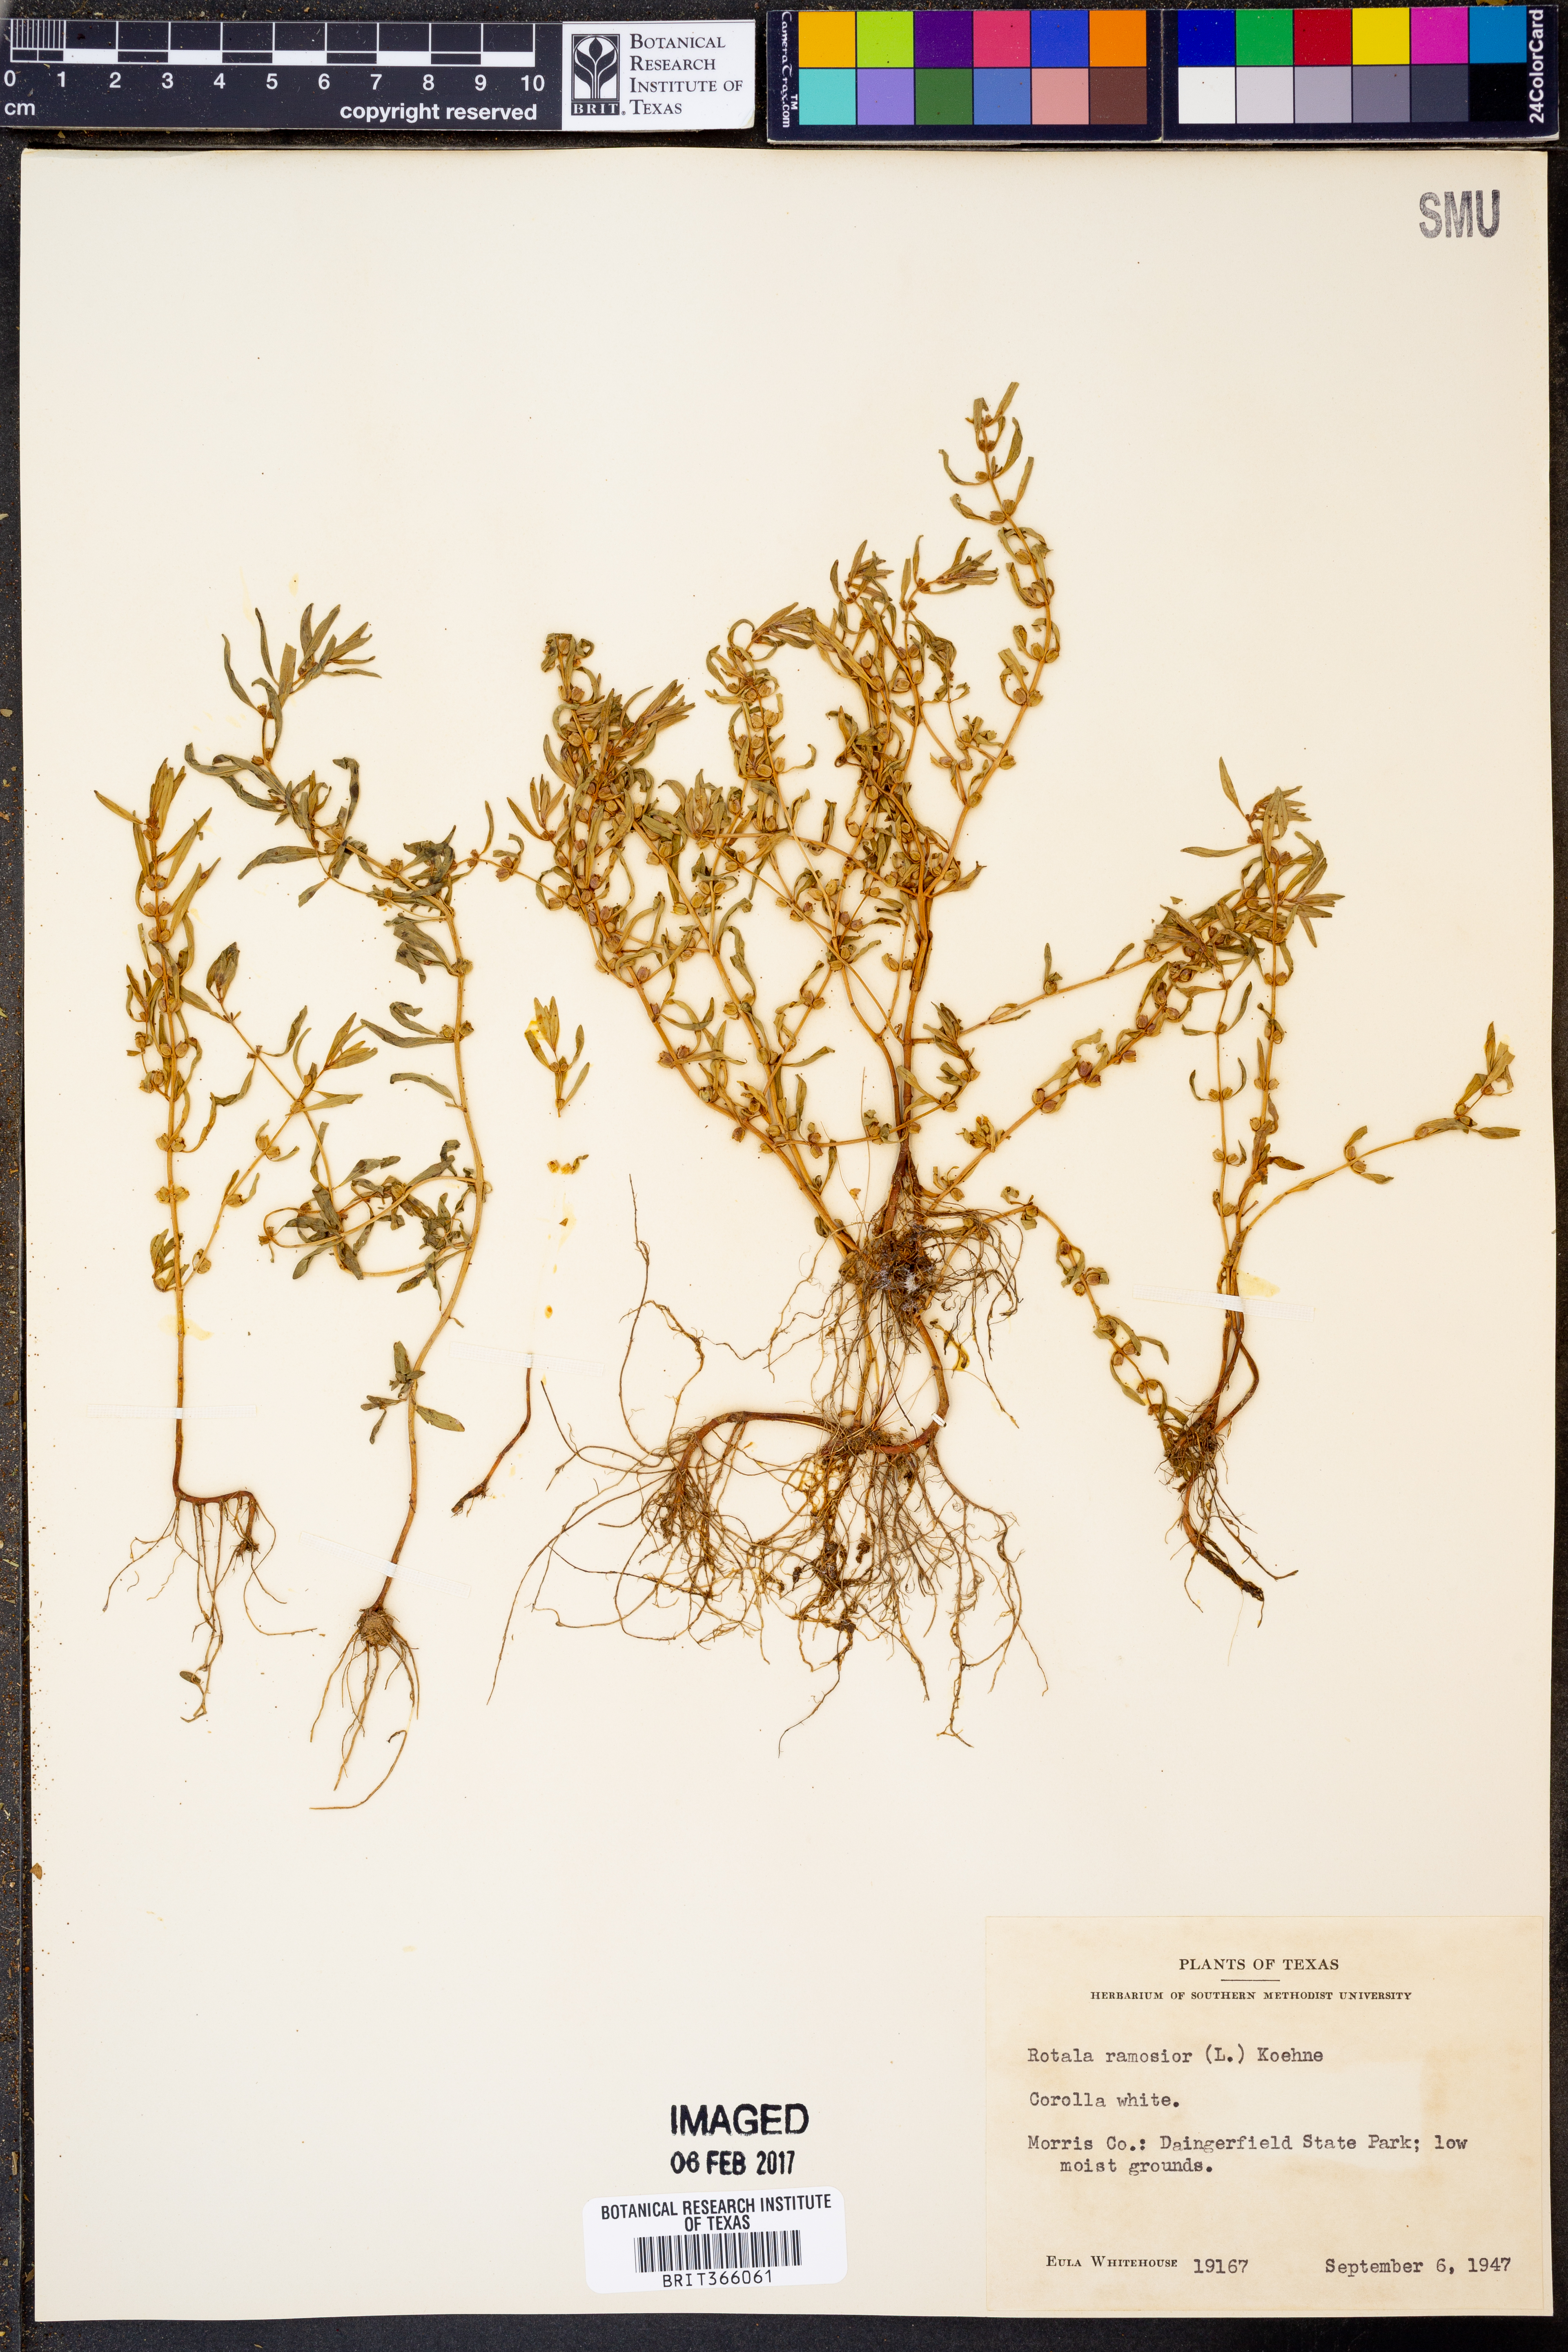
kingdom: Plantae
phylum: Tracheophyta
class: Magnoliopsida
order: Myrtales
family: Lythraceae
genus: Rotala
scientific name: Rotala ramosior
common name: Lowland rotala
